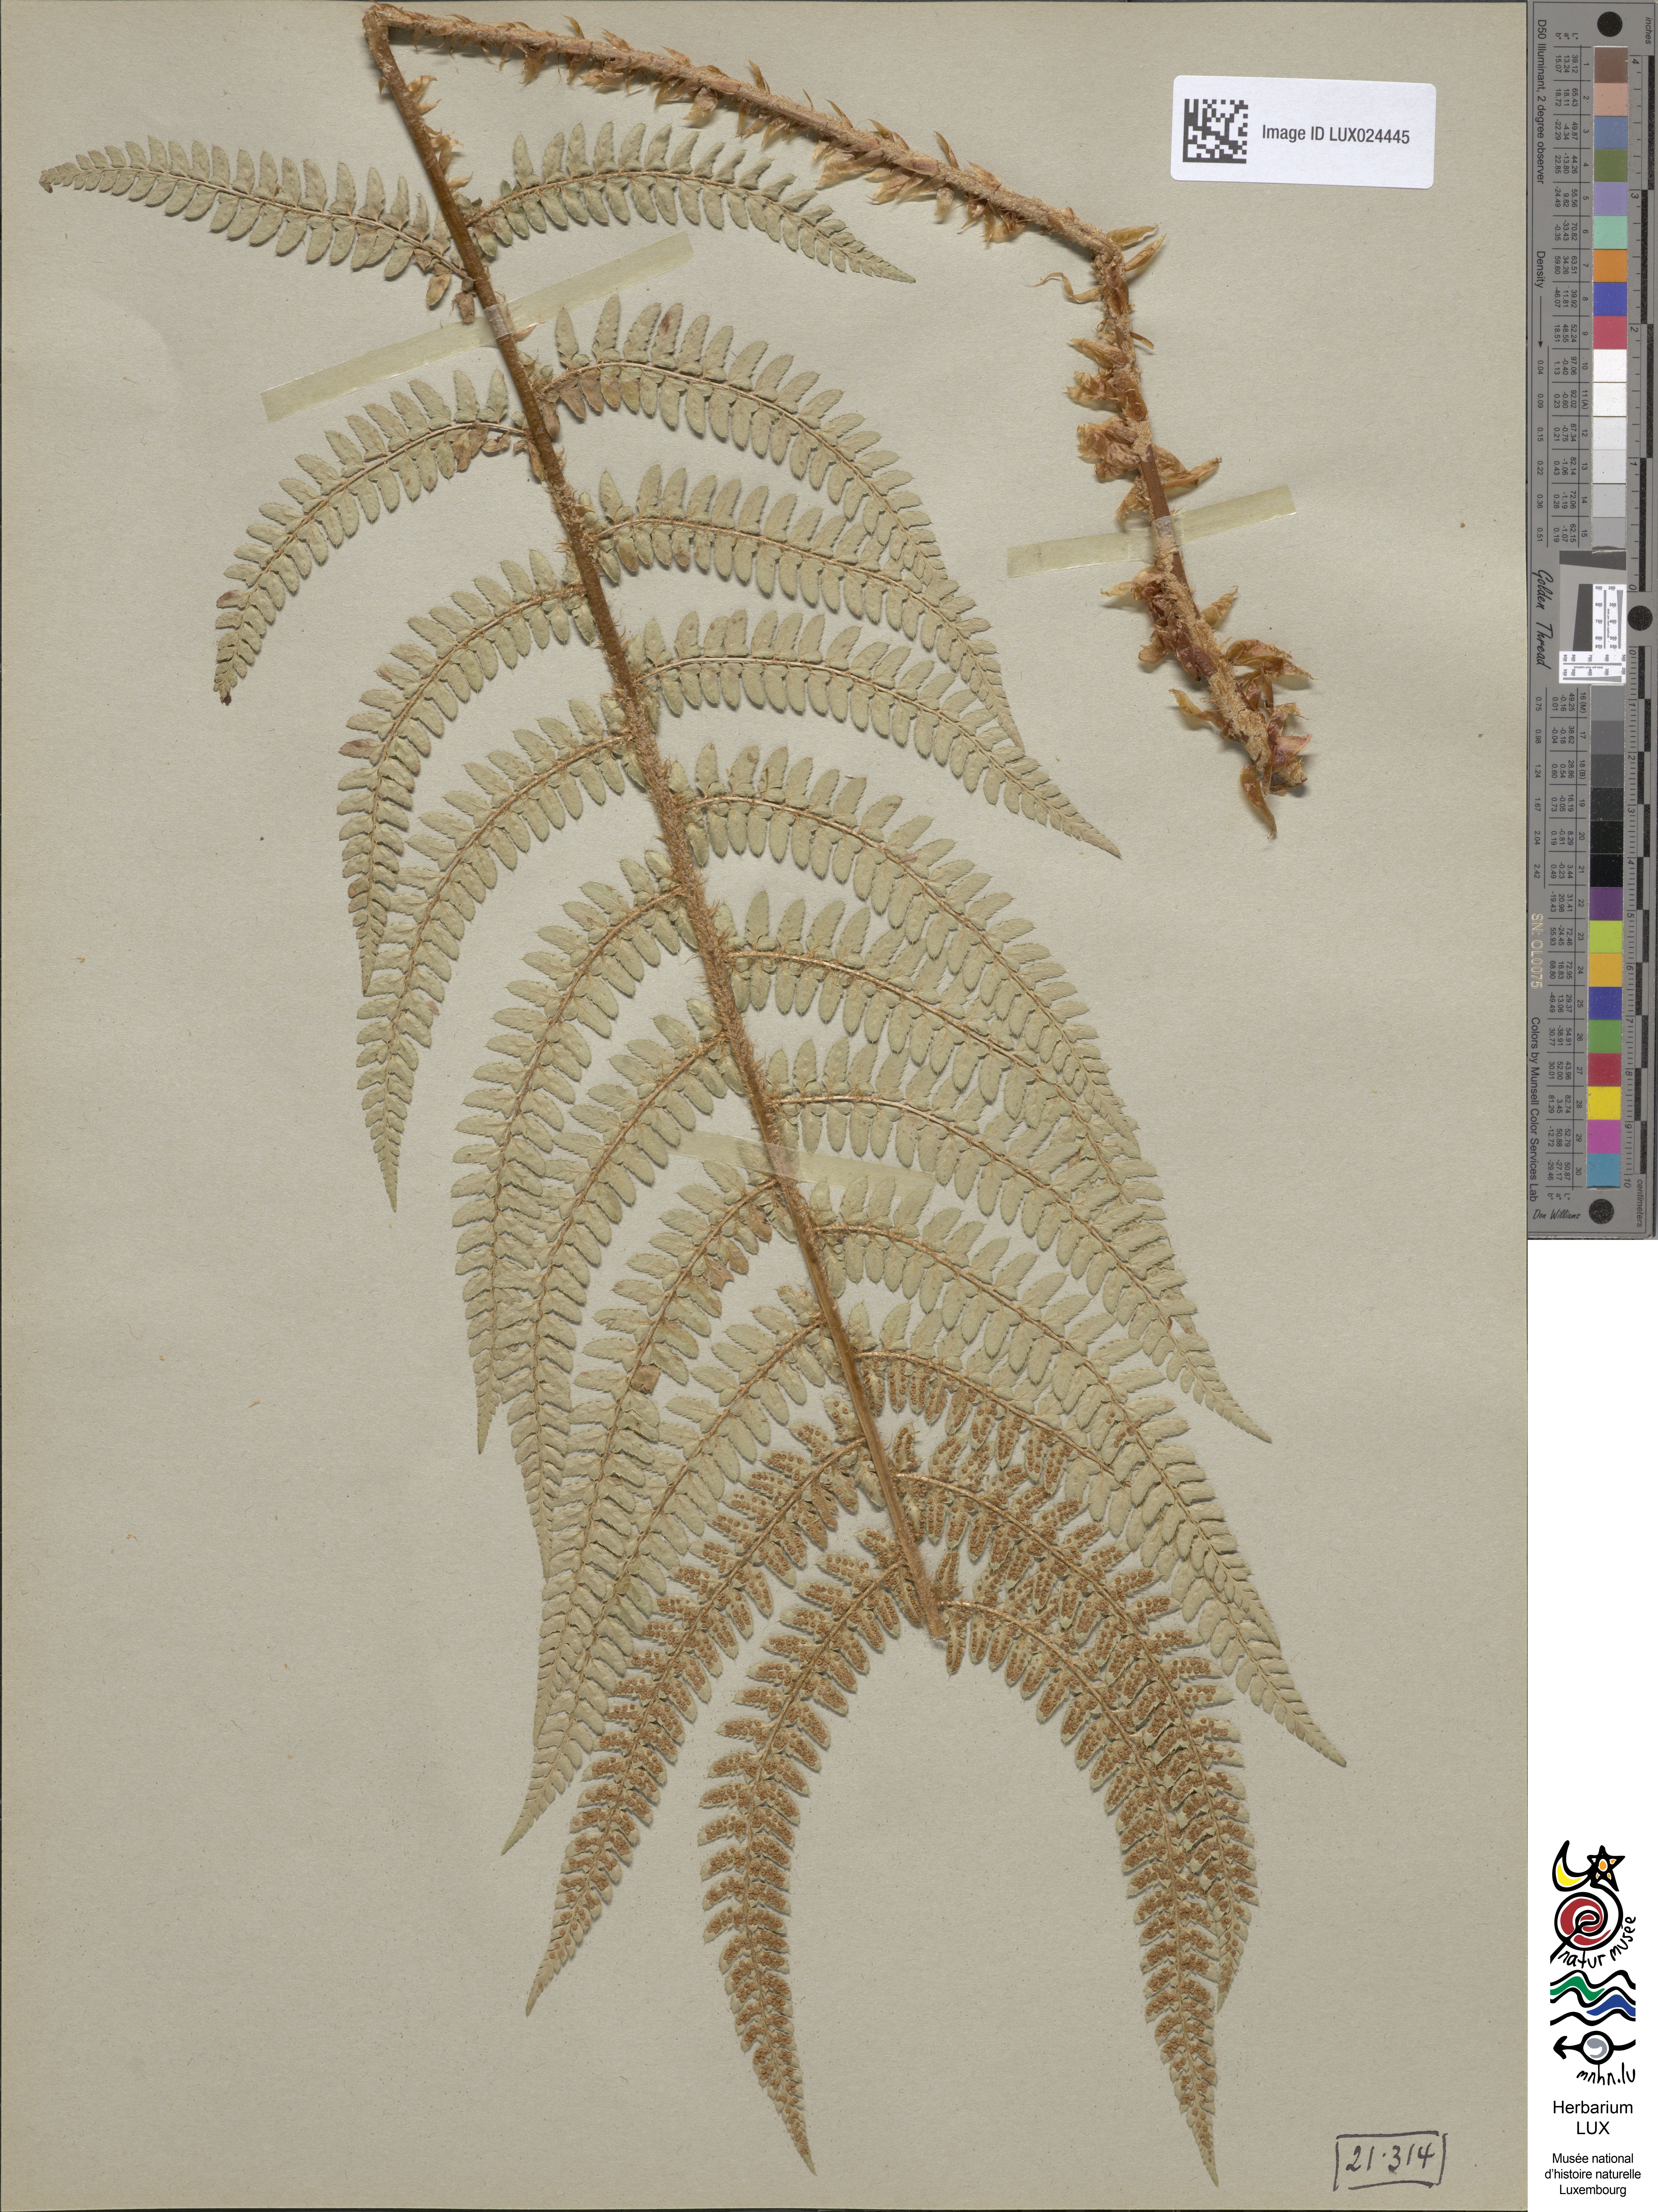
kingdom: Plantae
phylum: Tracheophyta
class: Polypodiopsida
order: Polypodiales
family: Dryopteridaceae
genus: Polystichum
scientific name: Polystichum setiferum
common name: Soft shield-fern
